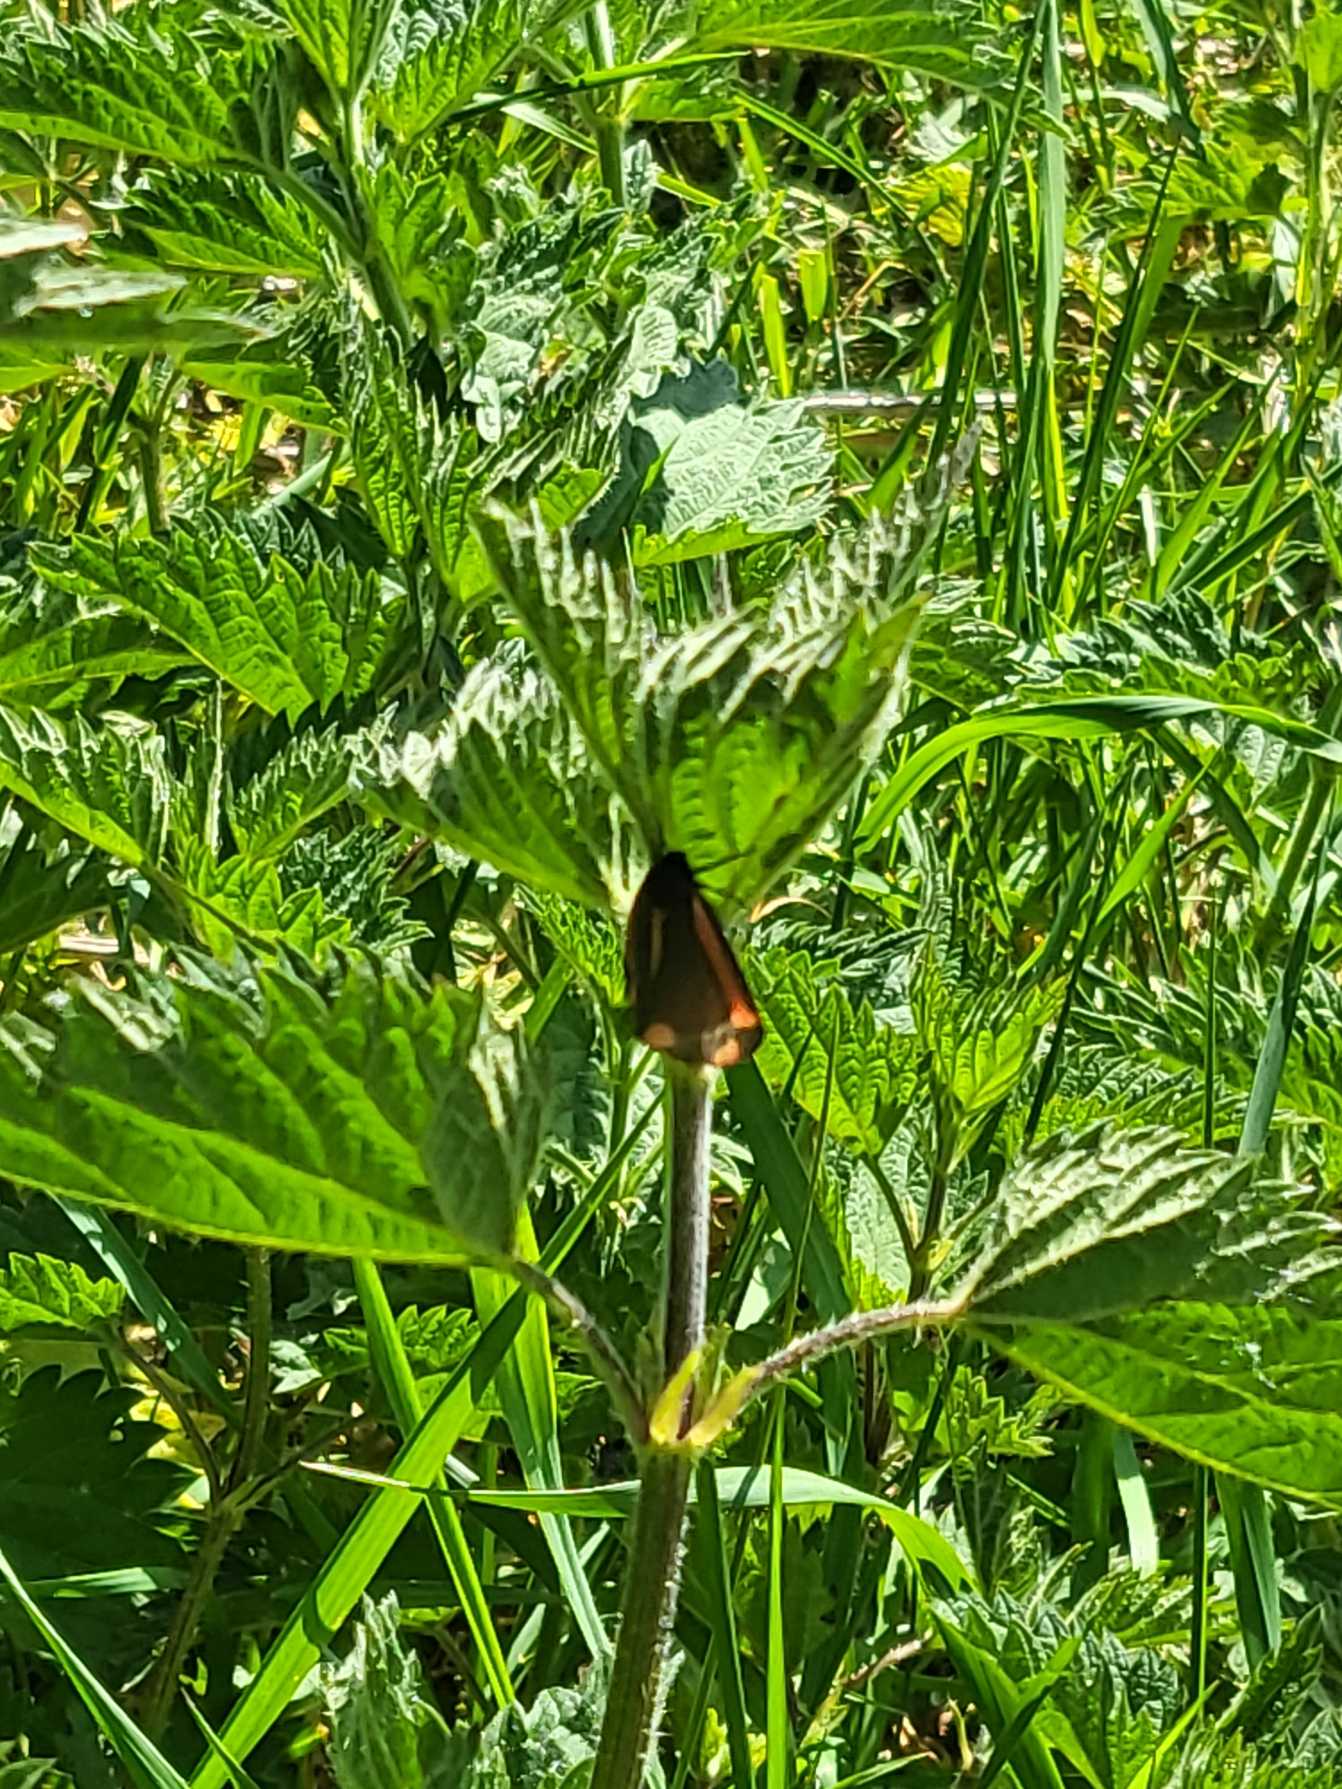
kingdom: Animalia
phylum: Arthropoda
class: Insecta
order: Lepidoptera
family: Erebidae
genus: Tyria
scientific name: Tyria jacobaeae
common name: Blodplet
